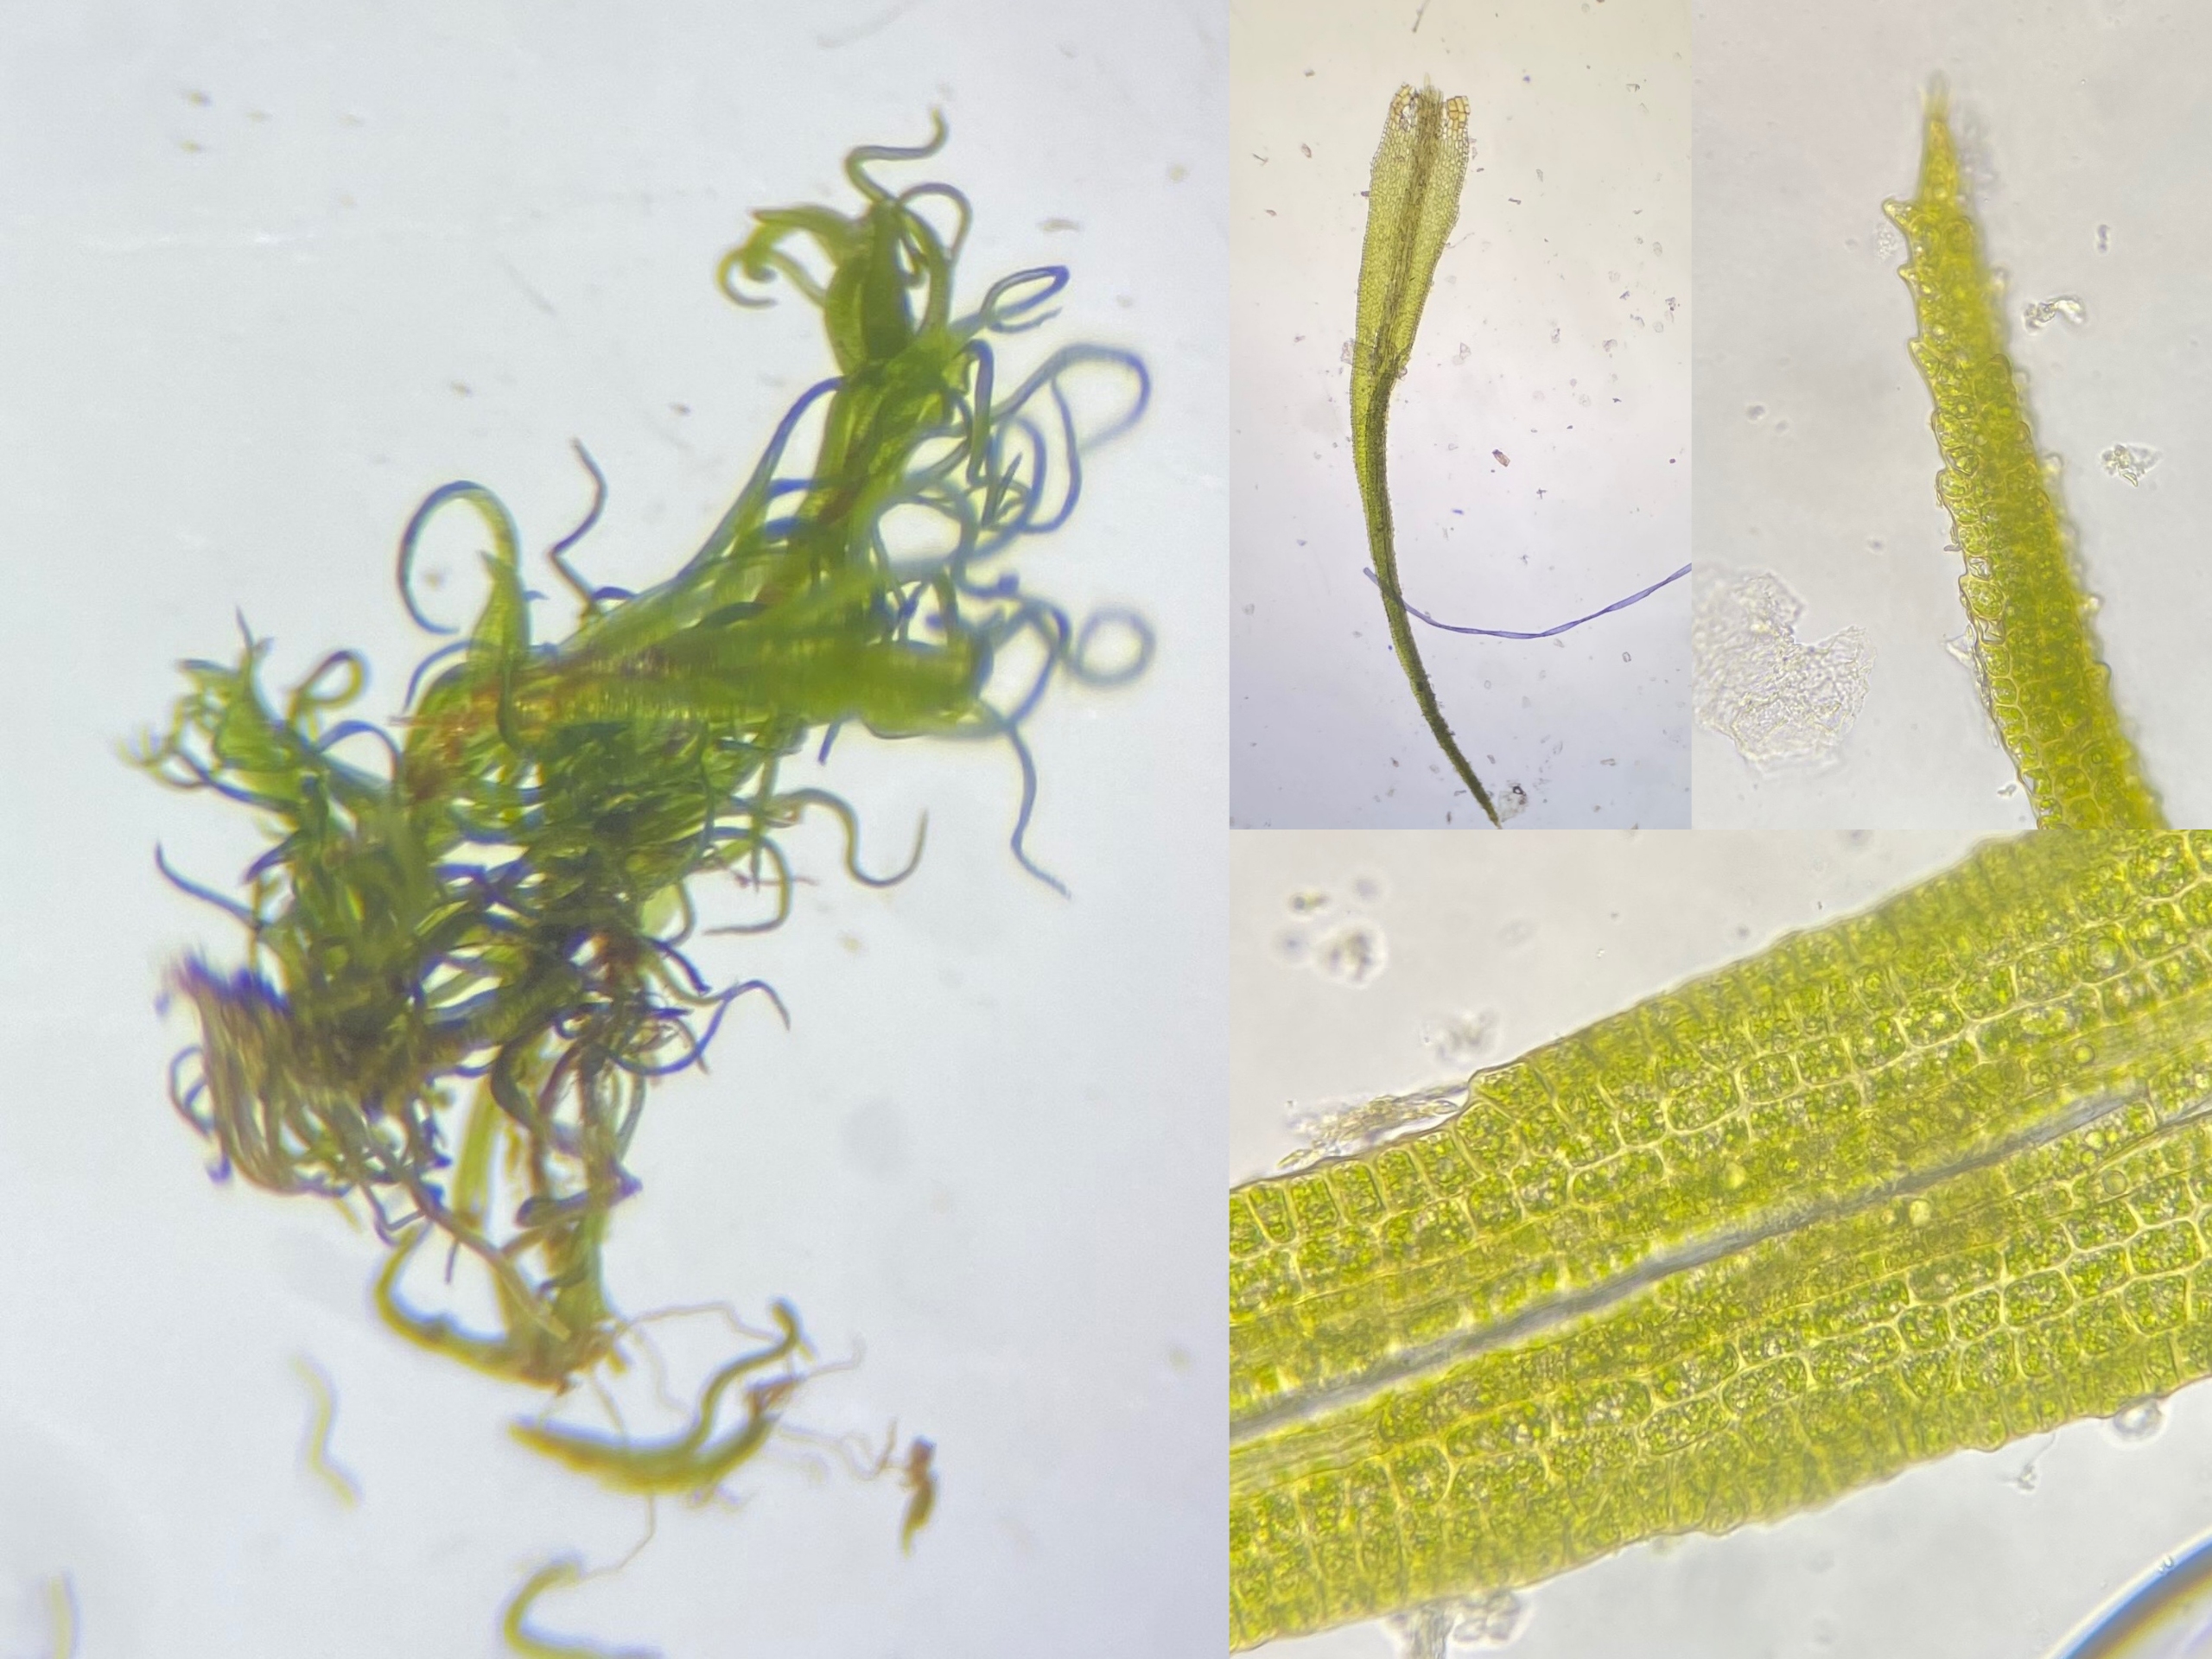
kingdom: Plantae
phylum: Bryophyta
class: Bryopsida
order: Dicranales
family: Dicranaceae
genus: Orthodicranum
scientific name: Orthodicranum montanum
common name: Tæt tyndvinge
